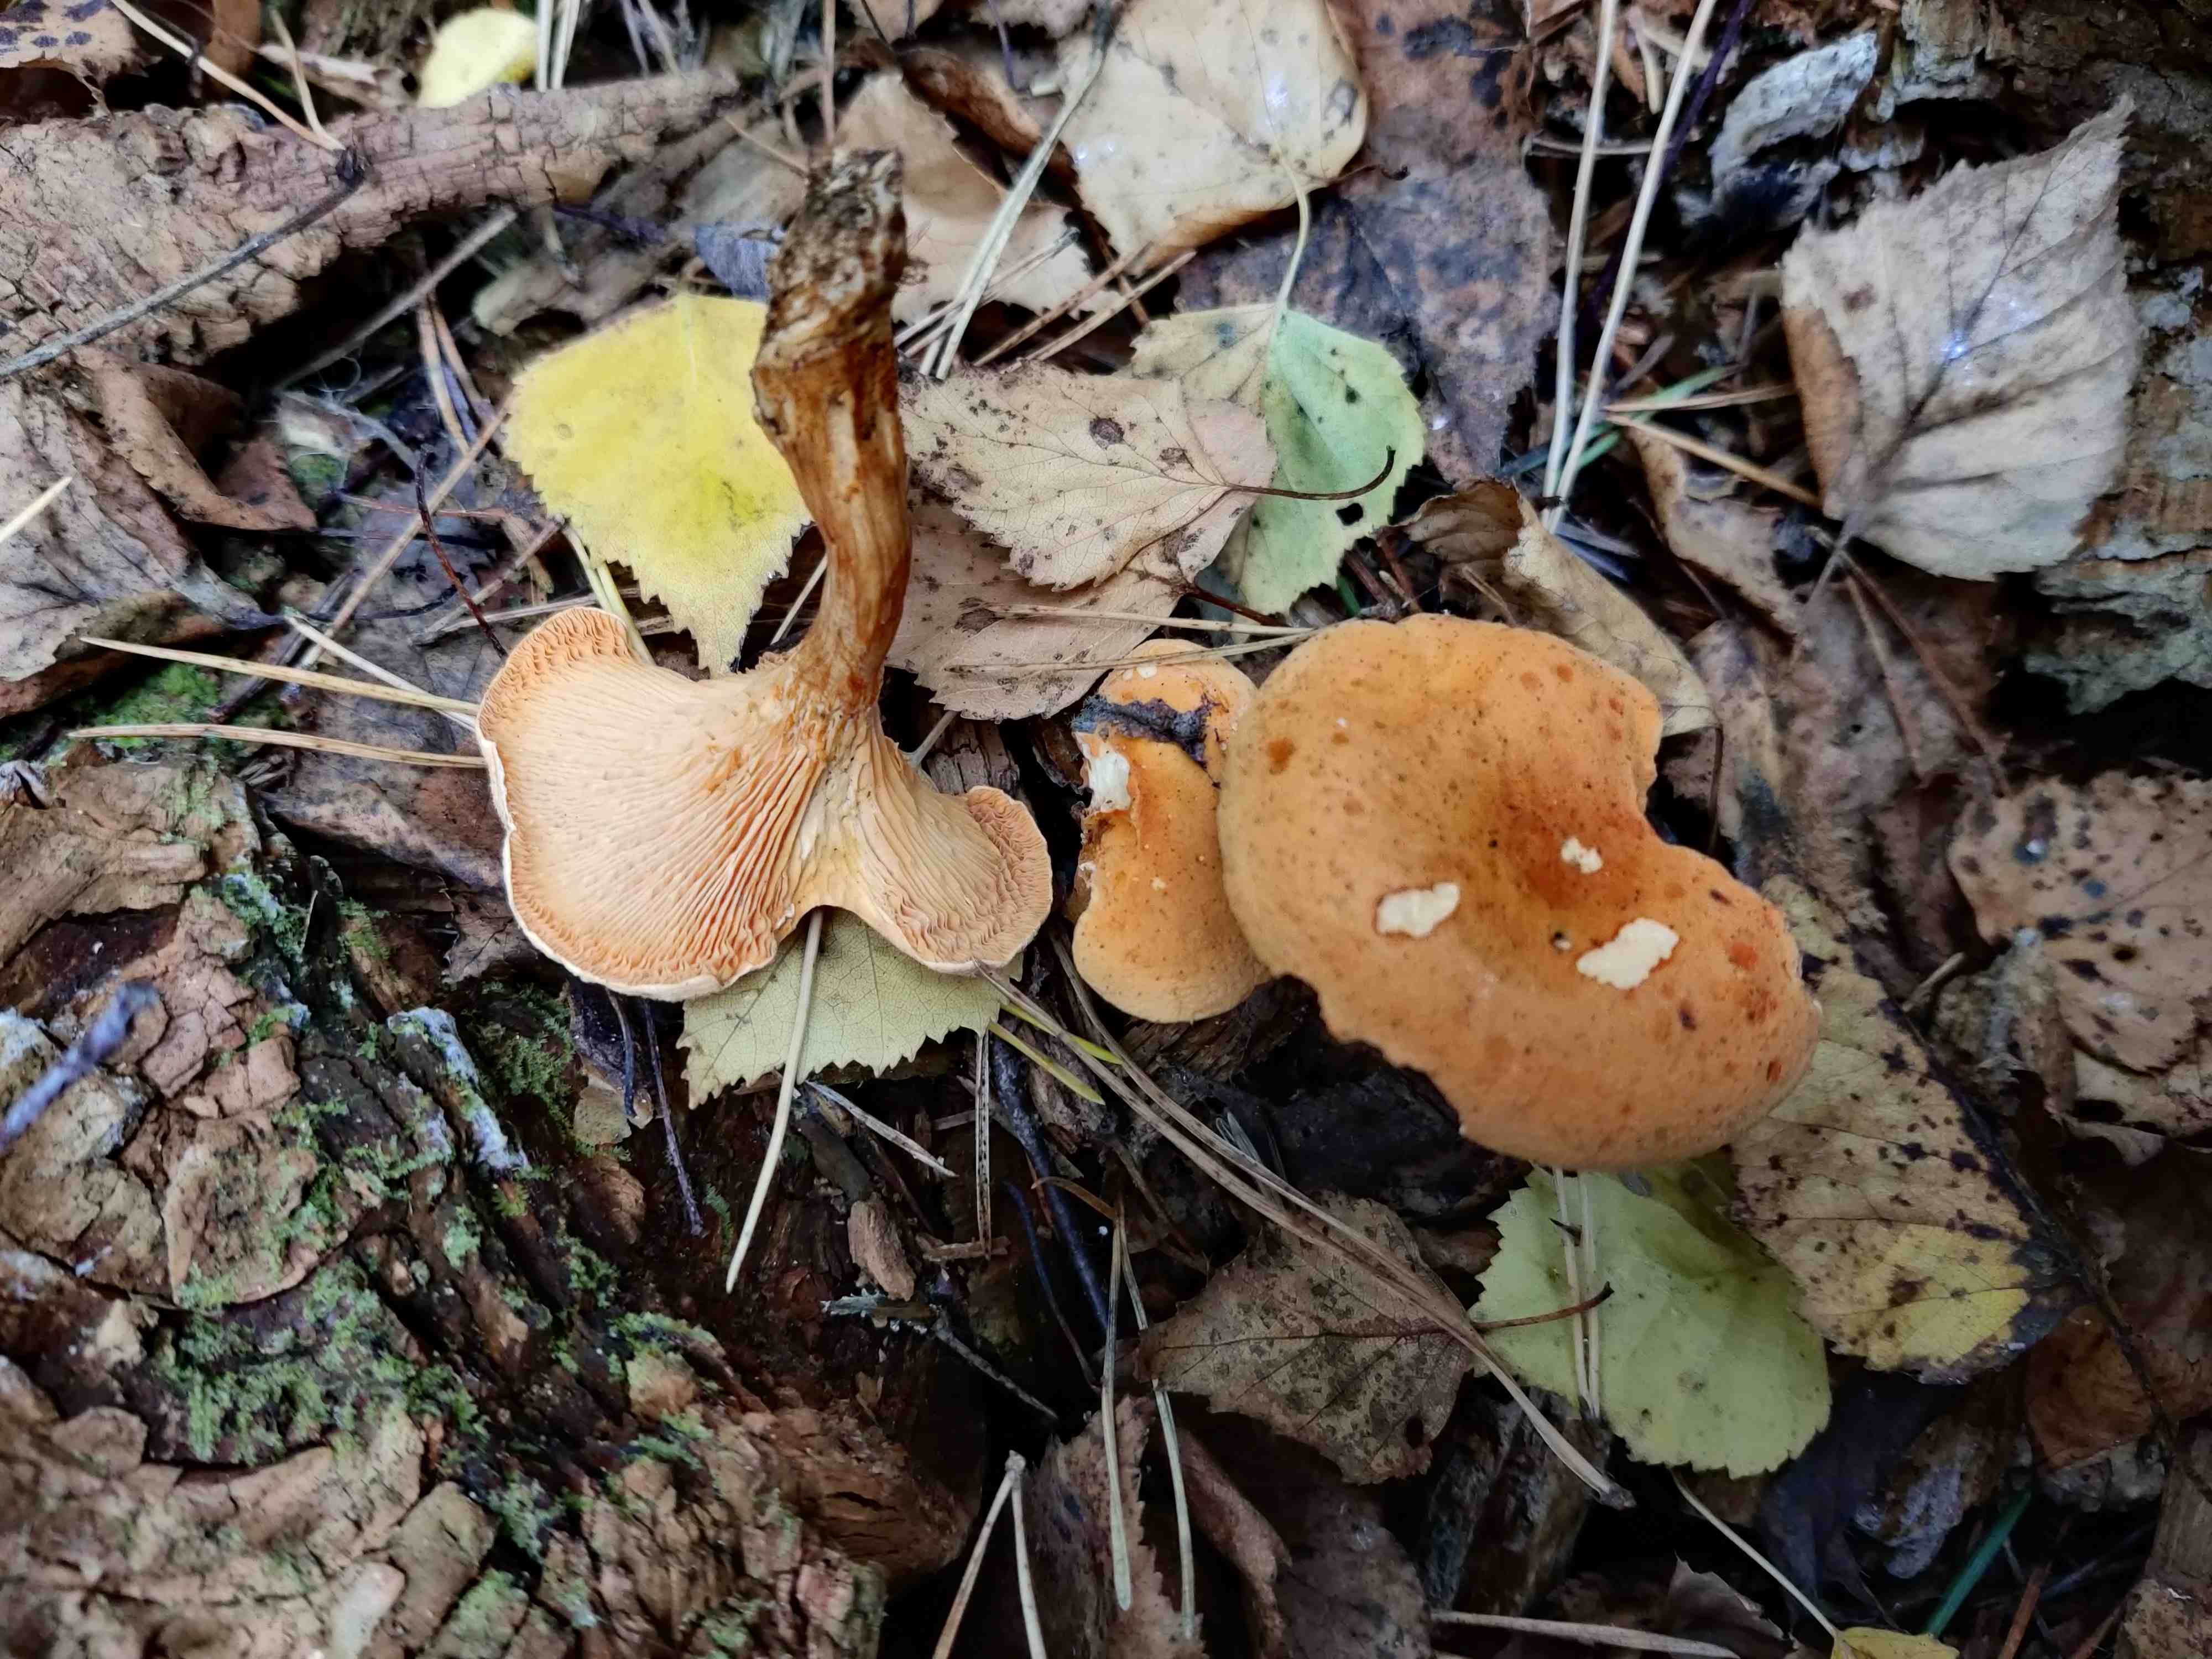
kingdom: Fungi
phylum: Basidiomycota
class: Agaricomycetes
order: Boletales
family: Hygrophoropsidaceae
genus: Hygrophoropsis
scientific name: Hygrophoropsis aurantiaca
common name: almindelig orangekantarel
